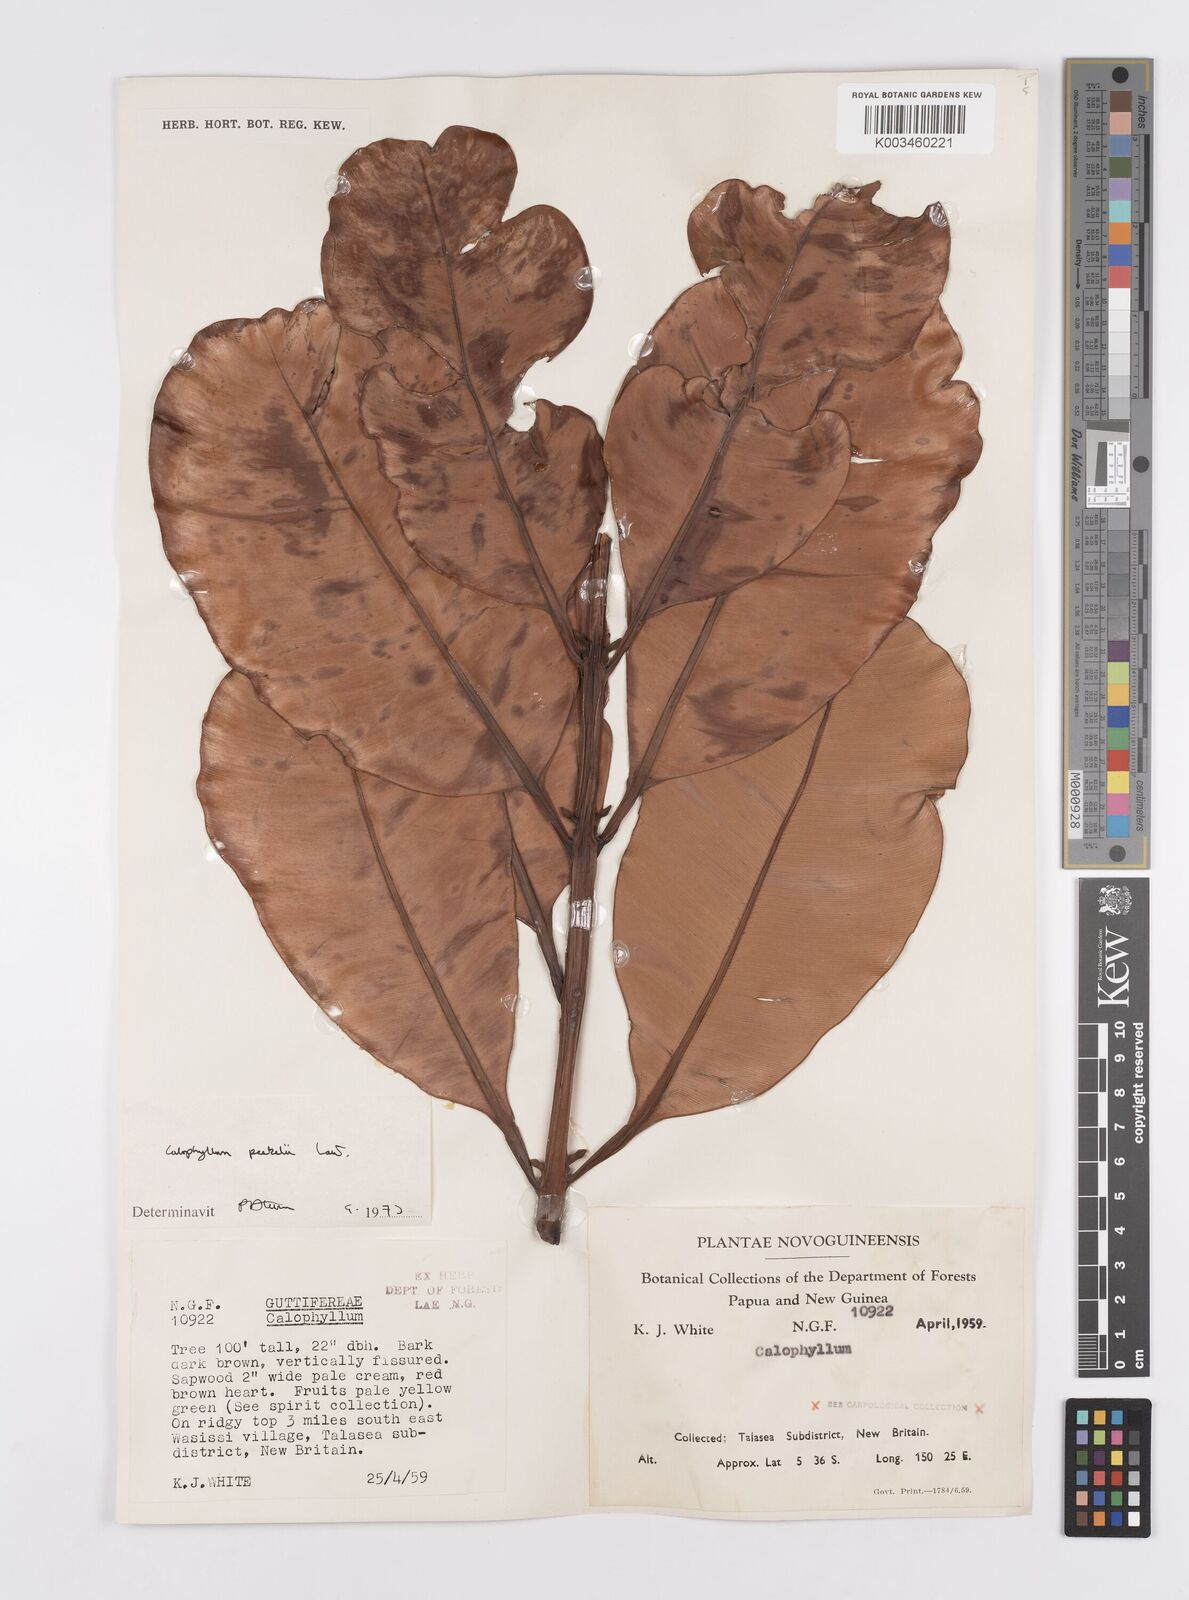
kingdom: Plantae
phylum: Tracheophyta
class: Magnoliopsida
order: Malpighiales
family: Calophyllaceae
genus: Calophyllum
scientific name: Calophyllum peekelii
